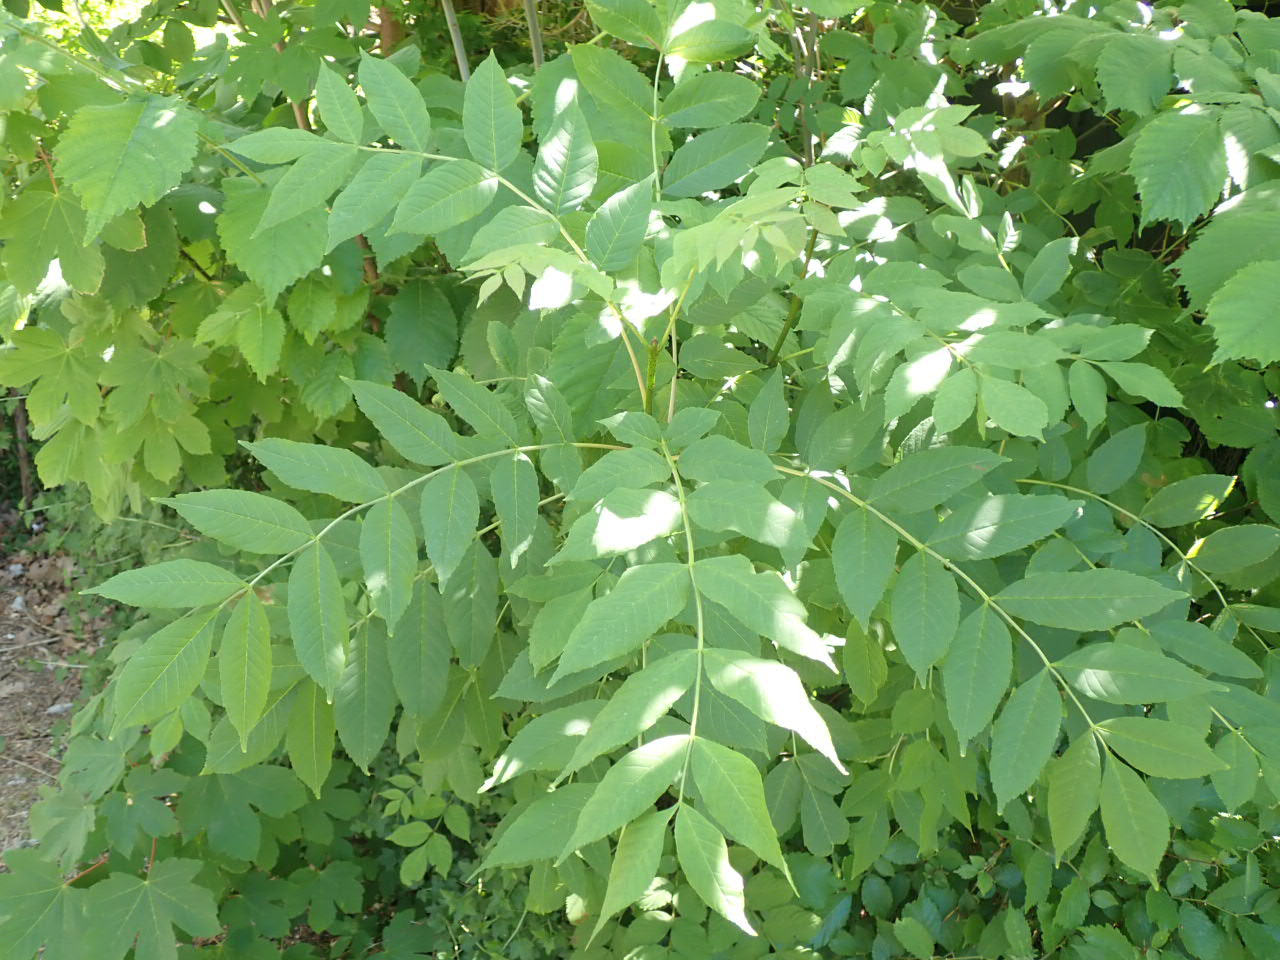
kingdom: Plantae
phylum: Tracheophyta
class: Magnoliopsida
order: Lamiales
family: Oleaceae
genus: Fraxinus
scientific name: Fraxinus excelsior
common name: Ask
